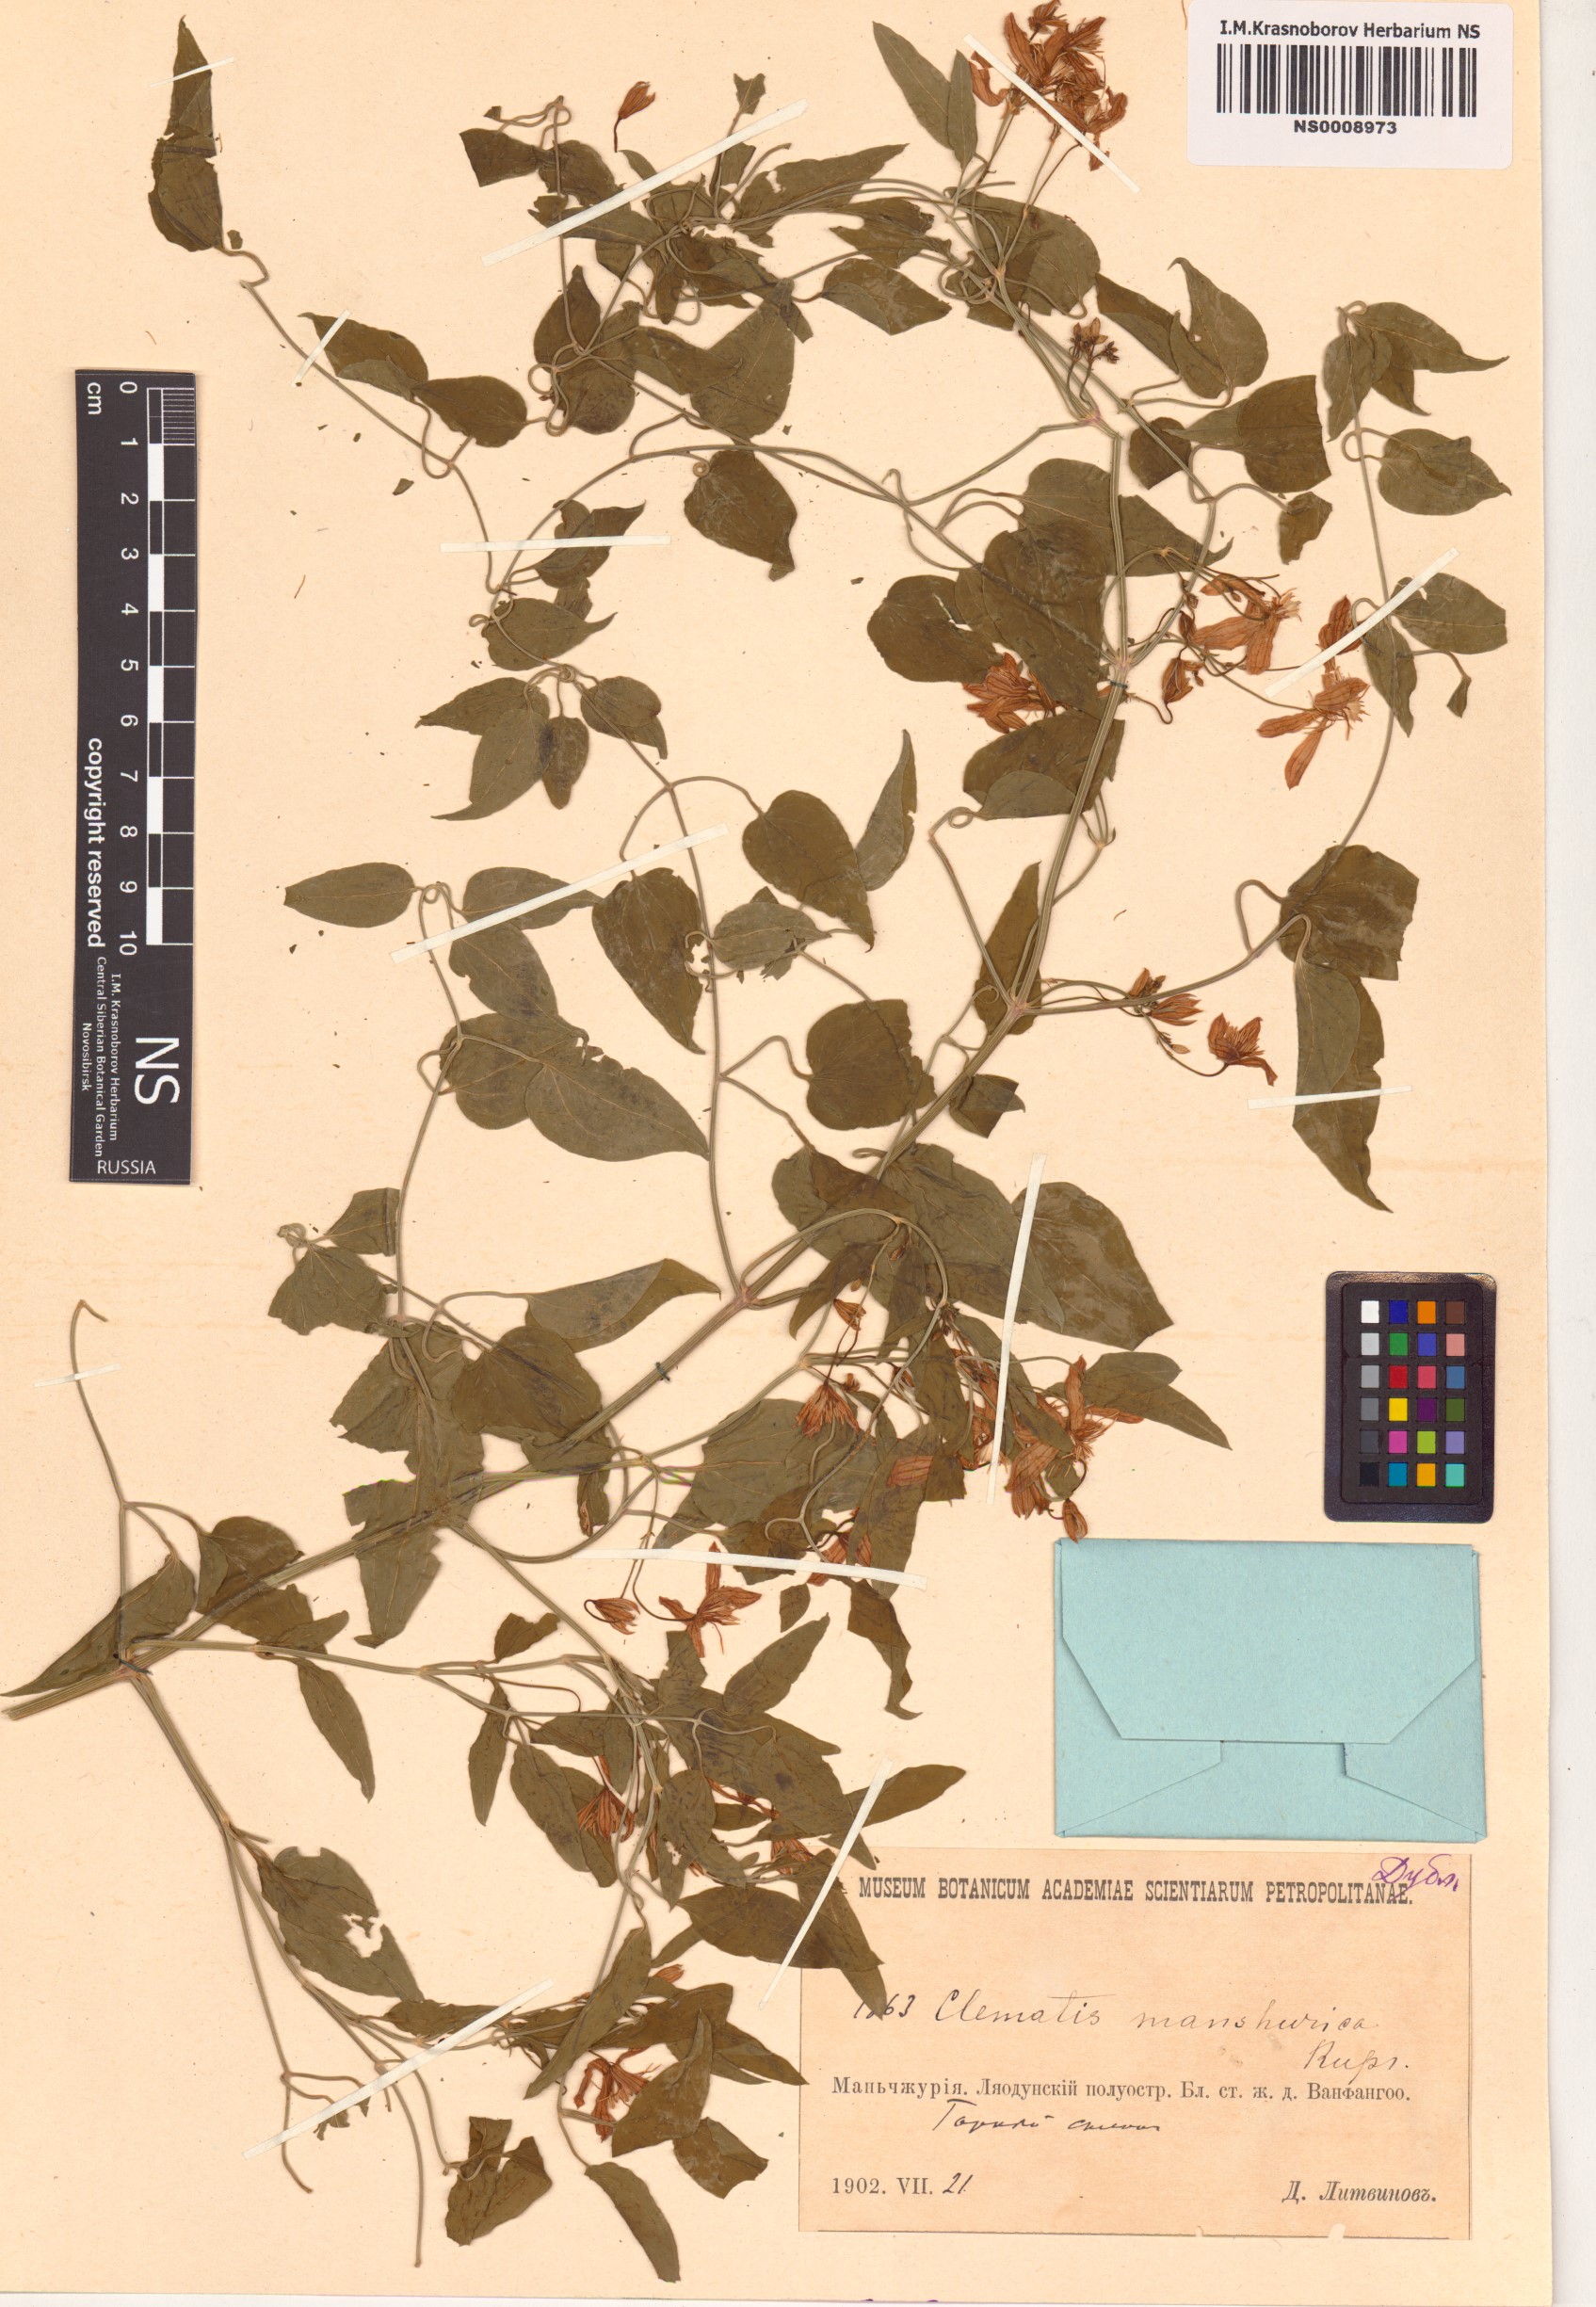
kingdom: Plantae
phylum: Tracheophyta
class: Magnoliopsida
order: Ranunculales
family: Ranunculaceae
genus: Clematis
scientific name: Clematis terniflora
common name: Sweet autumn clematis
